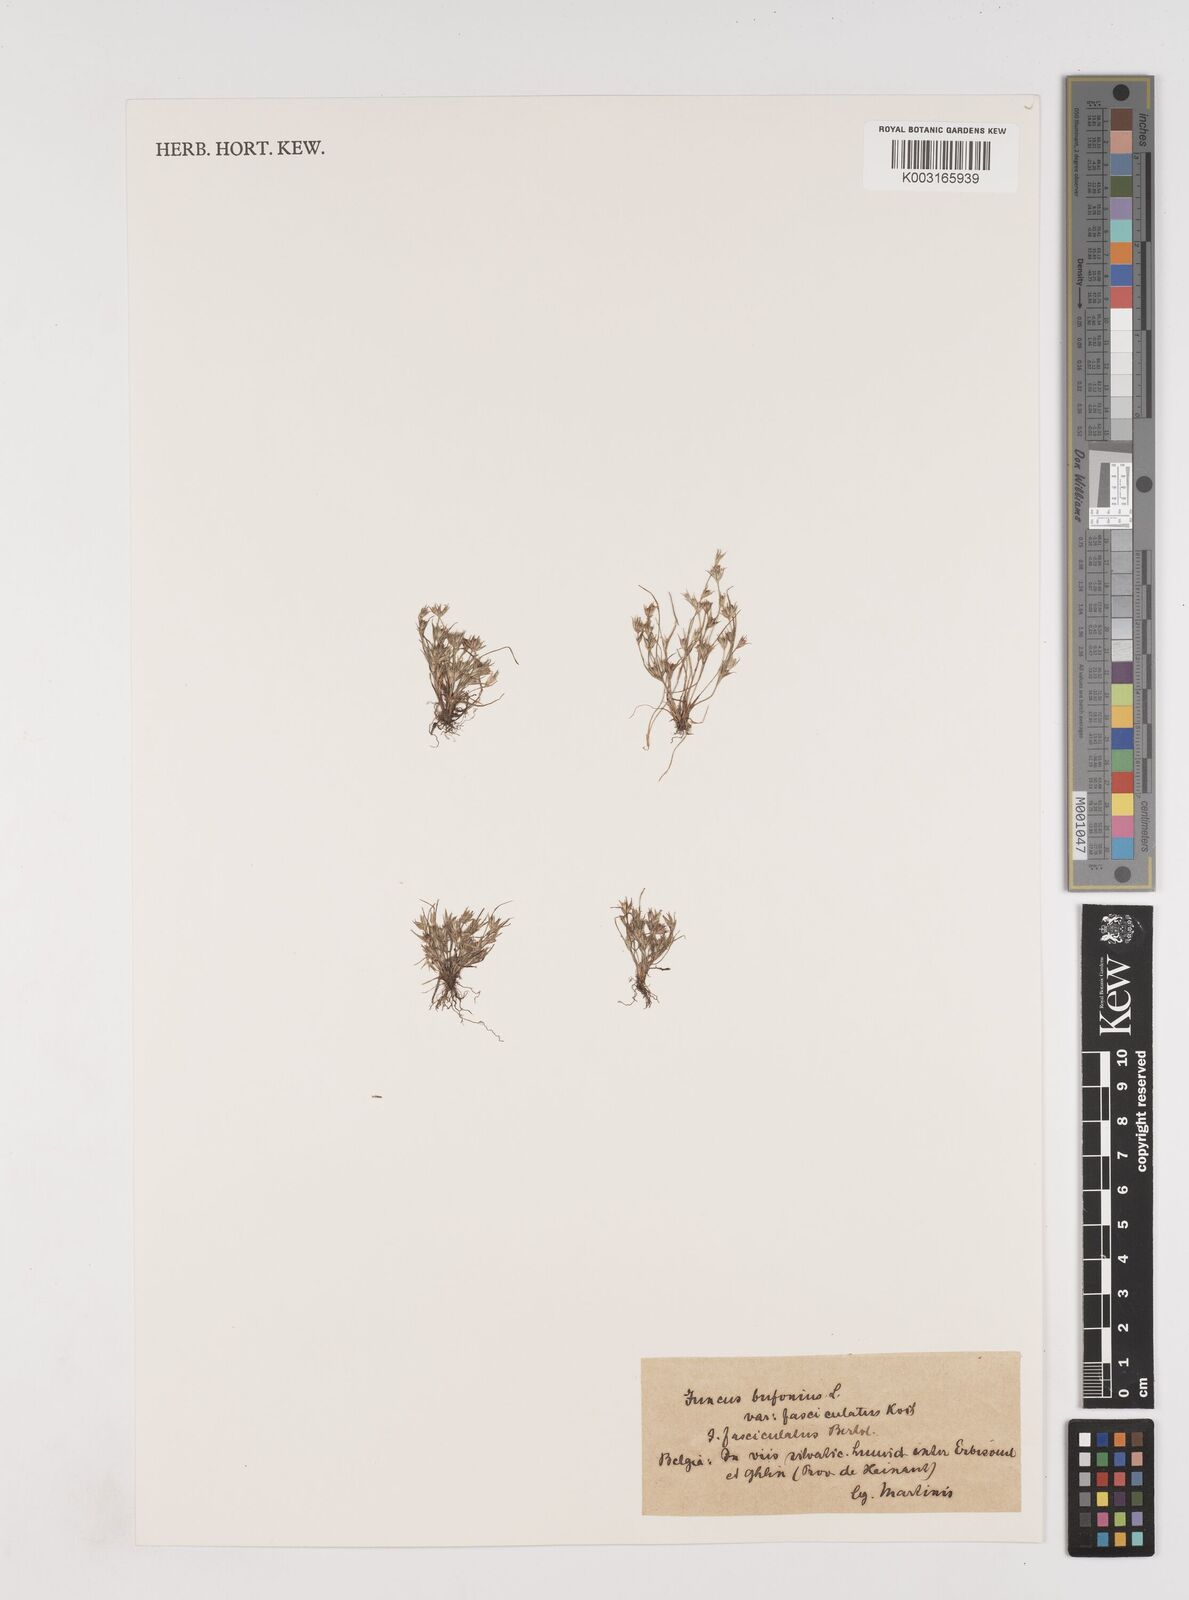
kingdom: Plantae
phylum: Tracheophyta
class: Liliopsida
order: Poales
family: Juncaceae
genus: Juncus
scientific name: Juncus bufonius
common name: Toad rush
